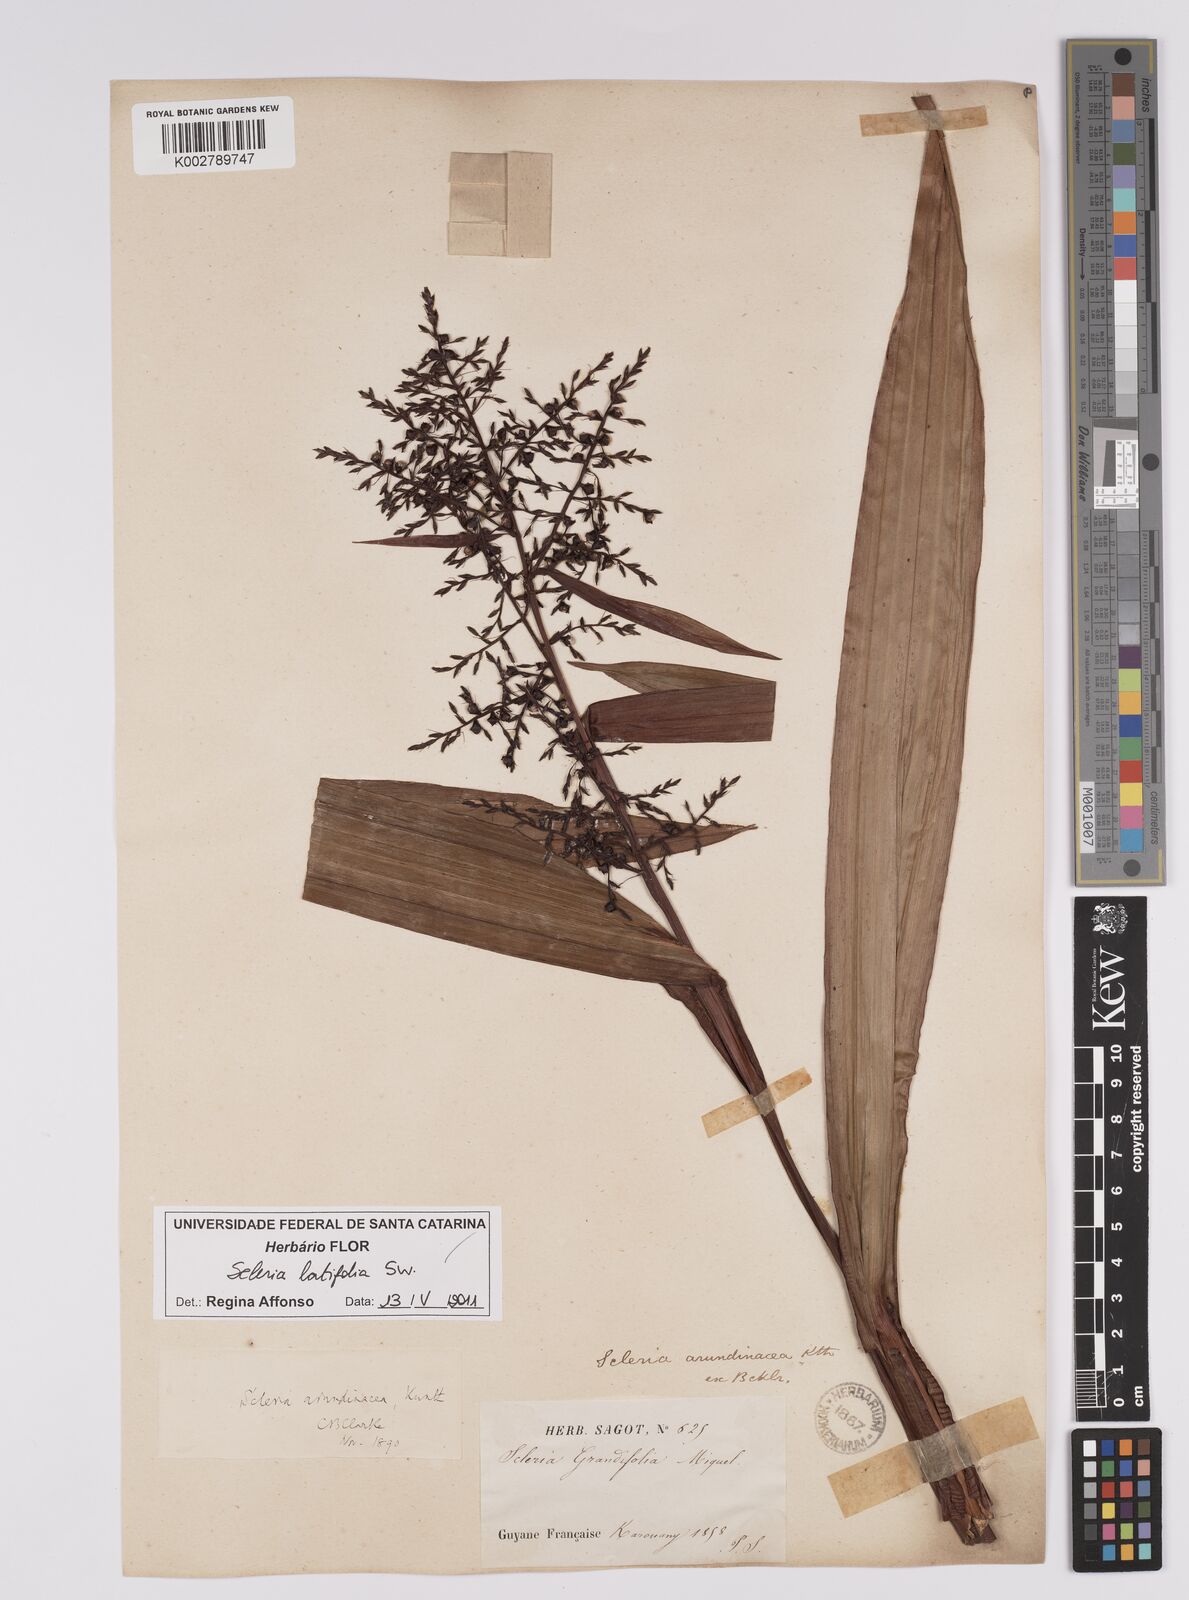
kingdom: Plantae
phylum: Tracheophyta
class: Liliopsida
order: Poales
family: Cyperaceae
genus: Scleria
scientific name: Scleria latifolia
